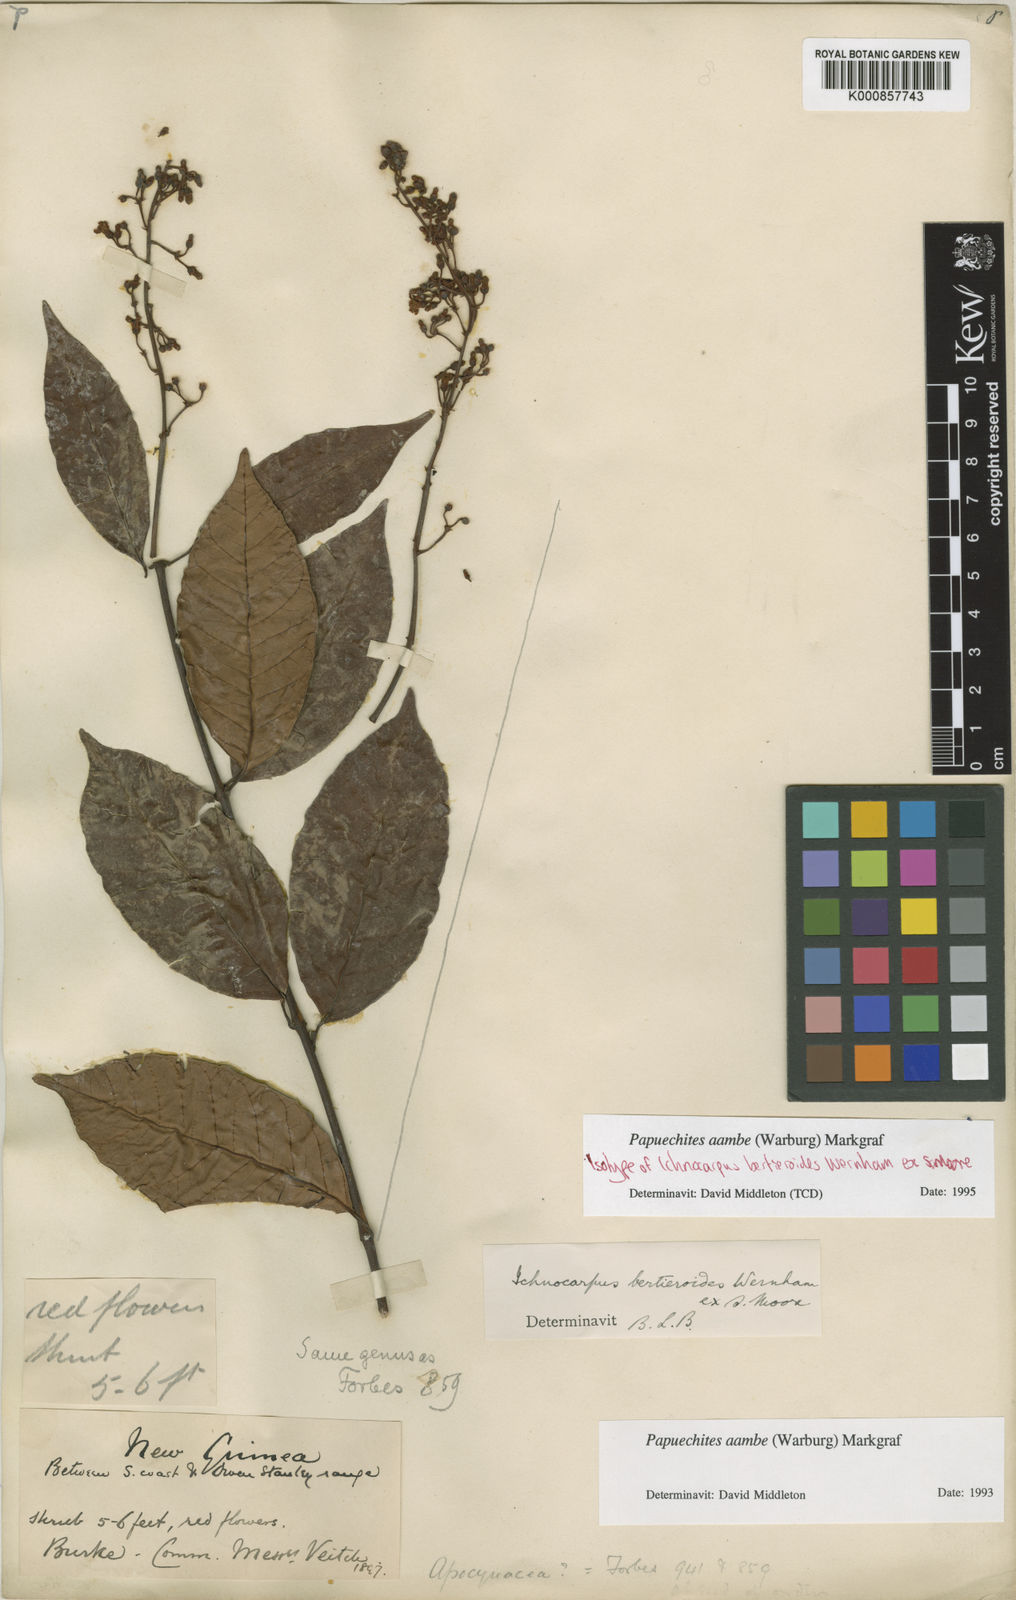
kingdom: Plantae
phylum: Tracheophyta
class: Magnoliopsida
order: Gentianales
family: Apocynaceae
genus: Papuechites
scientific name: Papuechites aambe
